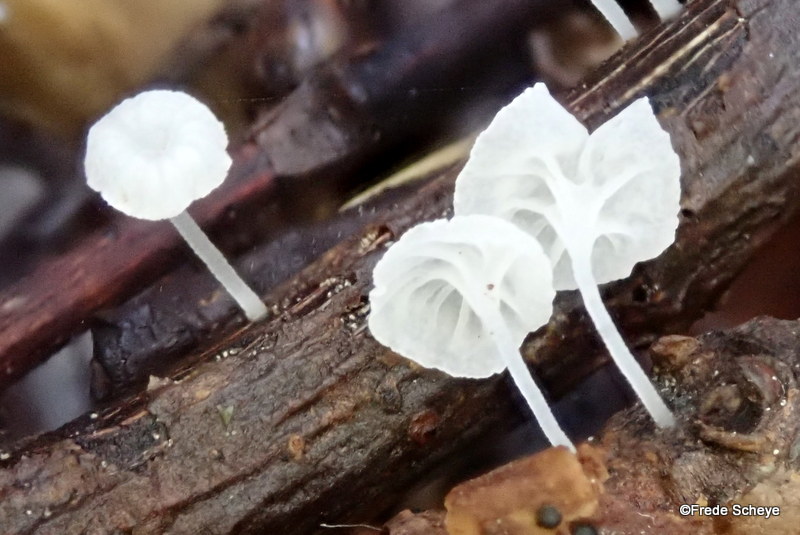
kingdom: Fungi
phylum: Basidiomycota
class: Agaricomycetes
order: Agaricales
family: Mycenaceae
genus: Hemimycena
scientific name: Hemimycena hirsuta
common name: håret huesvamp
